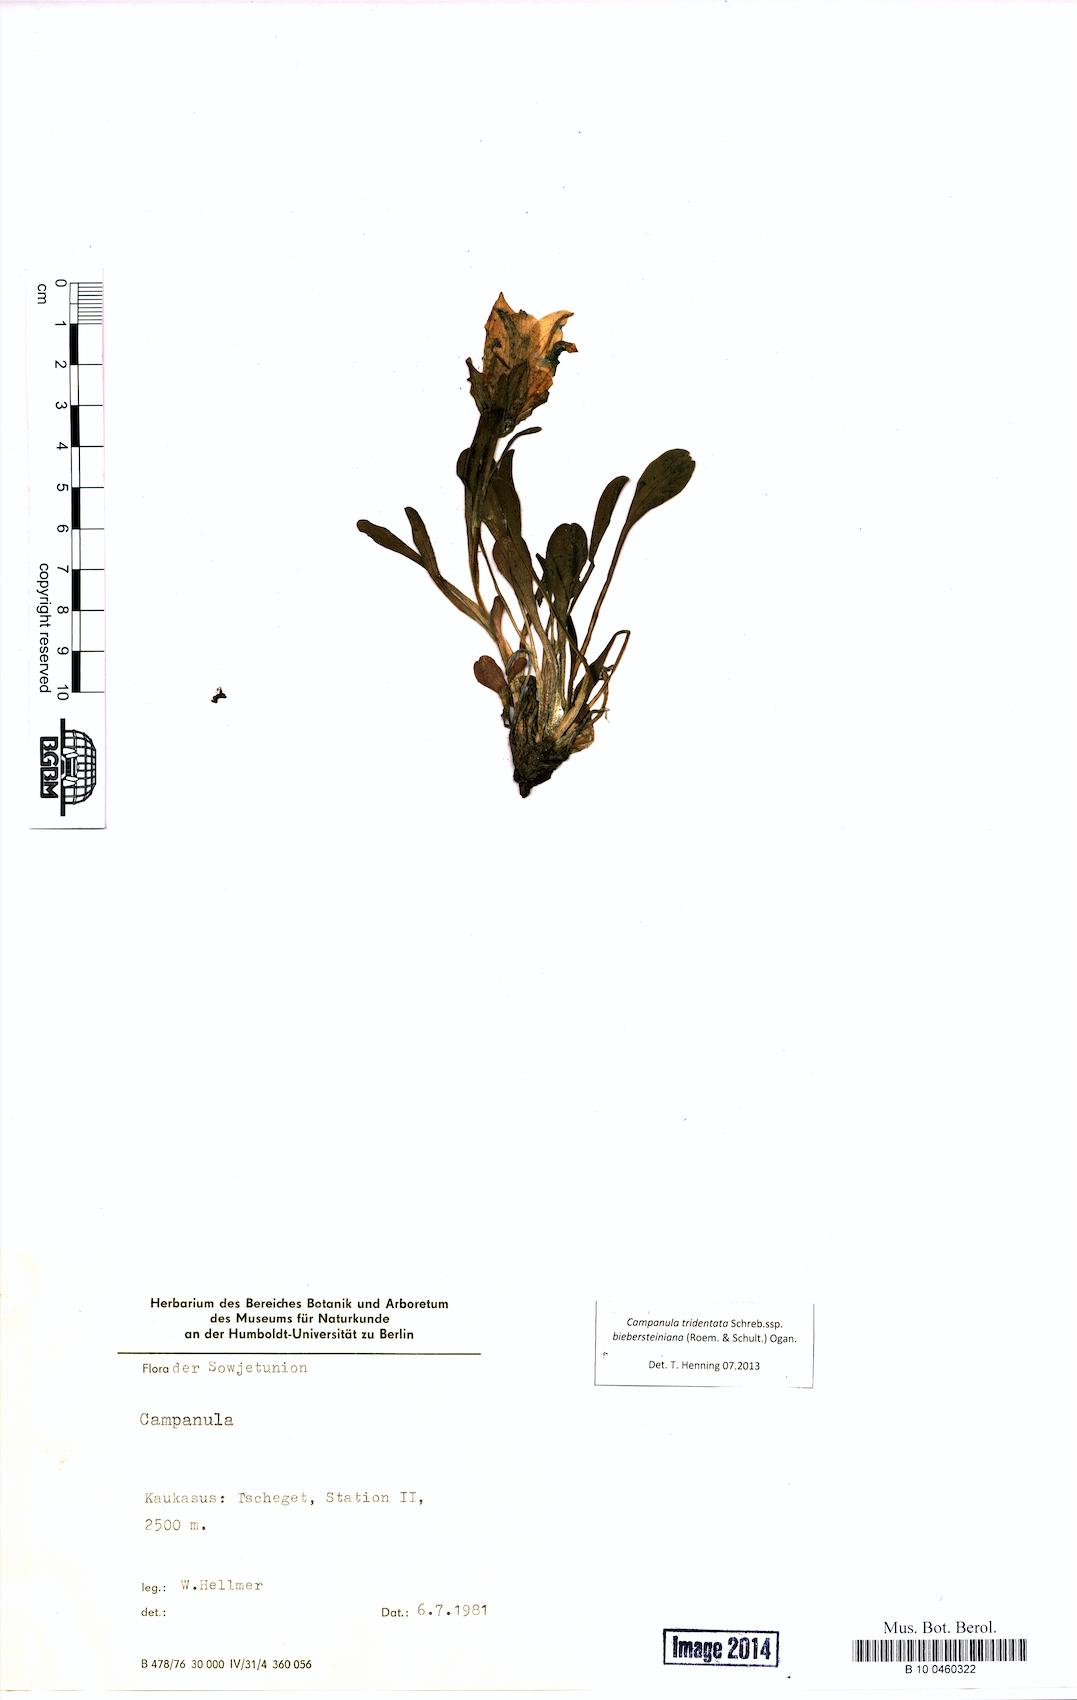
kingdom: Plantae
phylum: Tracheophyta
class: Magnoliopsida
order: Asterales
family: Campanulaceae
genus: Campanula
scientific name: Campanula tridentata
